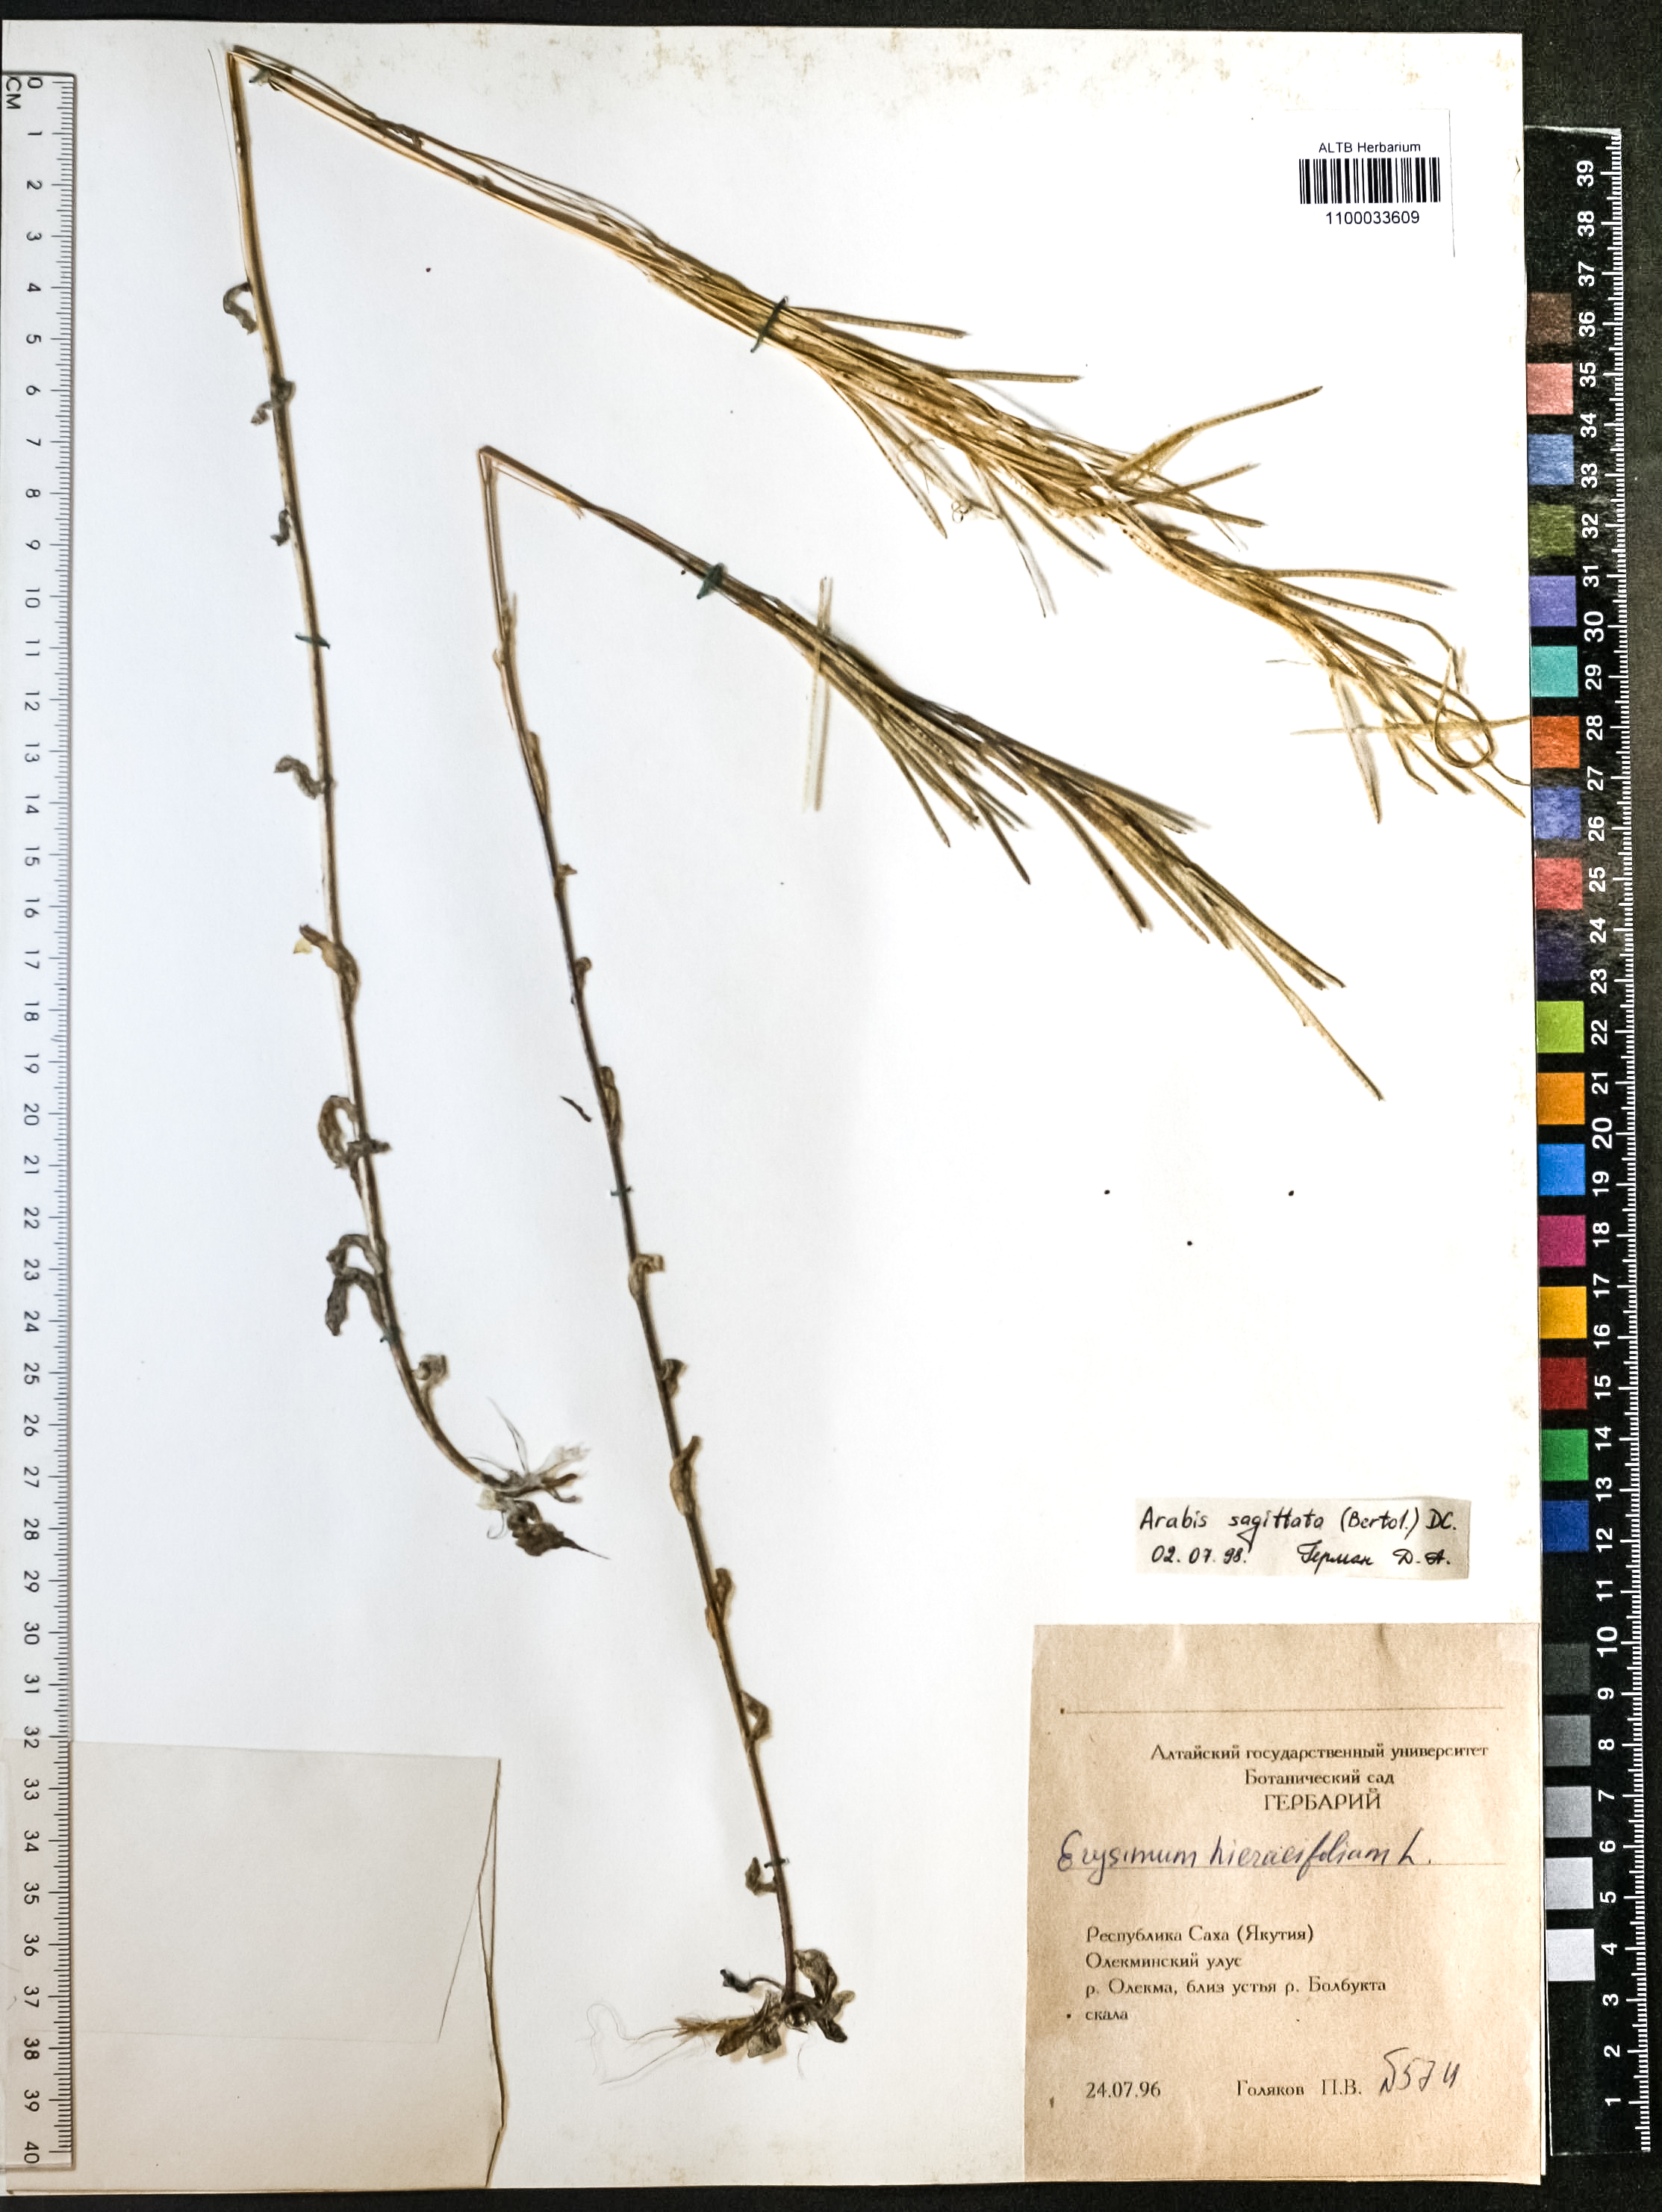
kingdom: Plantae
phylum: Tracheophyta
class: Magnoliopsida
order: Brassicales
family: Brassicaceae
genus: Arabis
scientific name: Arabis sagittata
